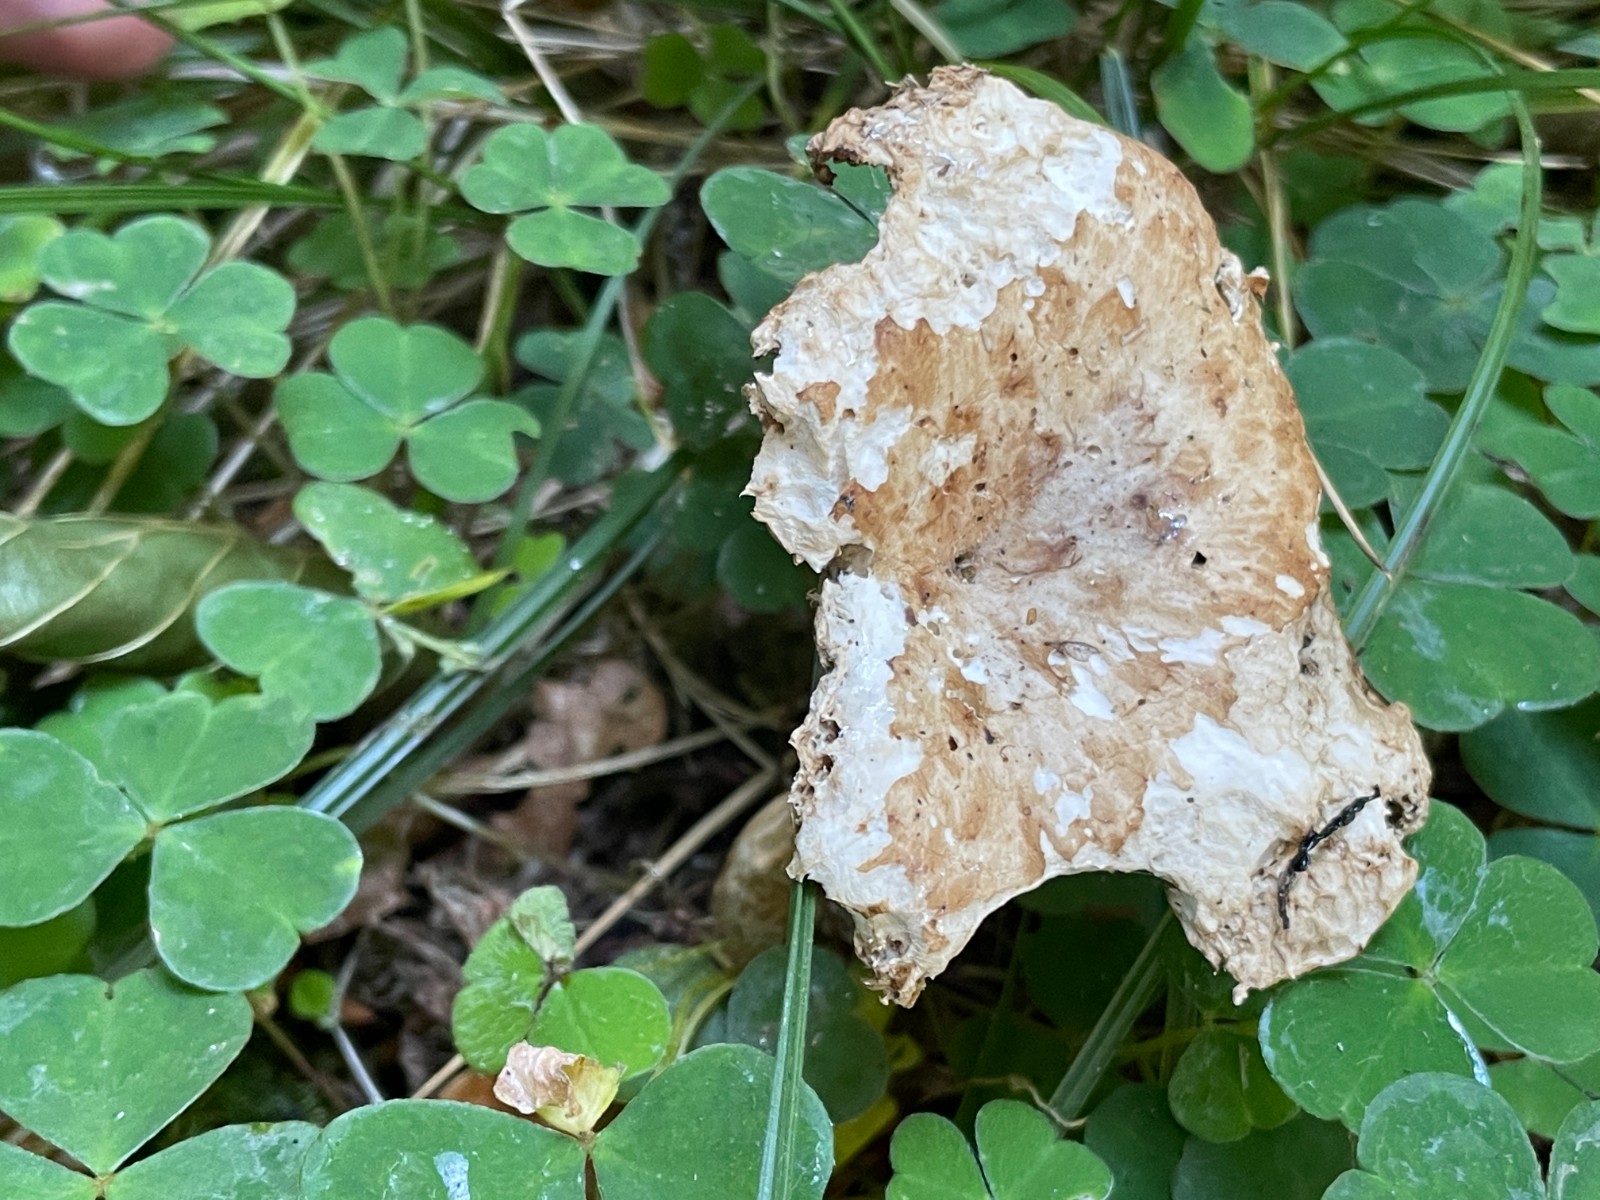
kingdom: Fungi
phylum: Basidiomycota
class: Agaricomycetes
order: Polyporales
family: Polyporaceae
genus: Polyporus
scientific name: Polyporus tuberaster
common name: knoldet stilkporesvamp
